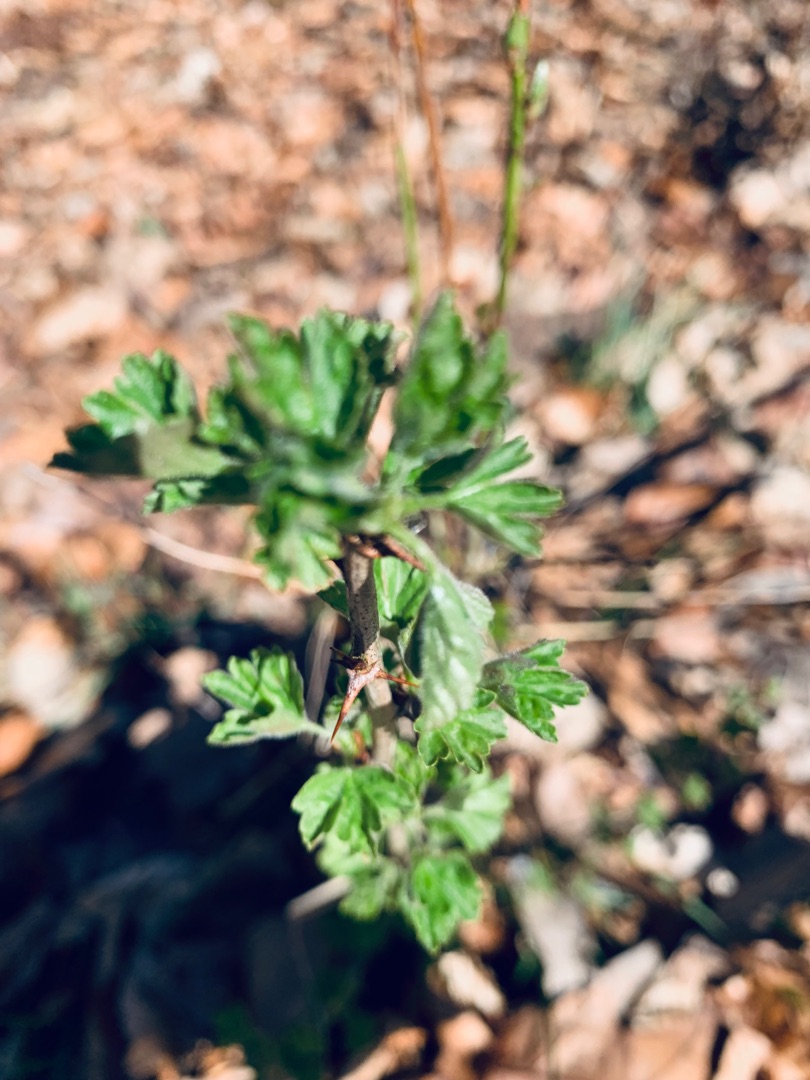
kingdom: Plantae
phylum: Tracheophyta
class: Magnoliopsida
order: Saxifragales
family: Grossulariaceae
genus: Ribes
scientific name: Ribes uva-crispa
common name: Stikkelsbær
